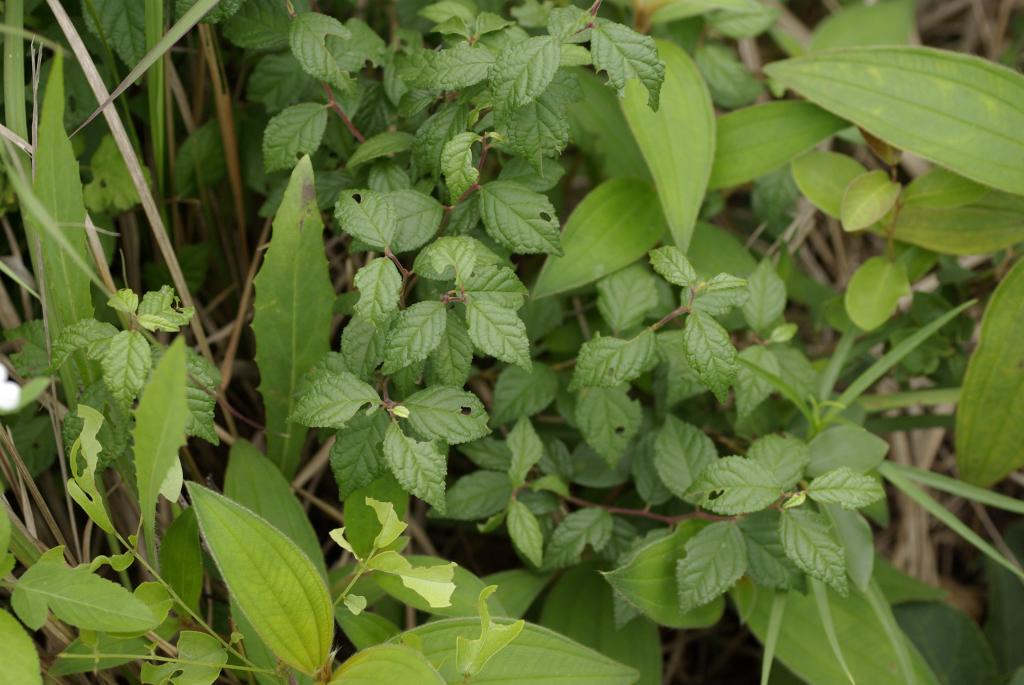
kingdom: Plantae
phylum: Tracheophyta
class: Magnoliopsida
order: Rosales
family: Rosaceae
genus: Prunus
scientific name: Prunus japonica
